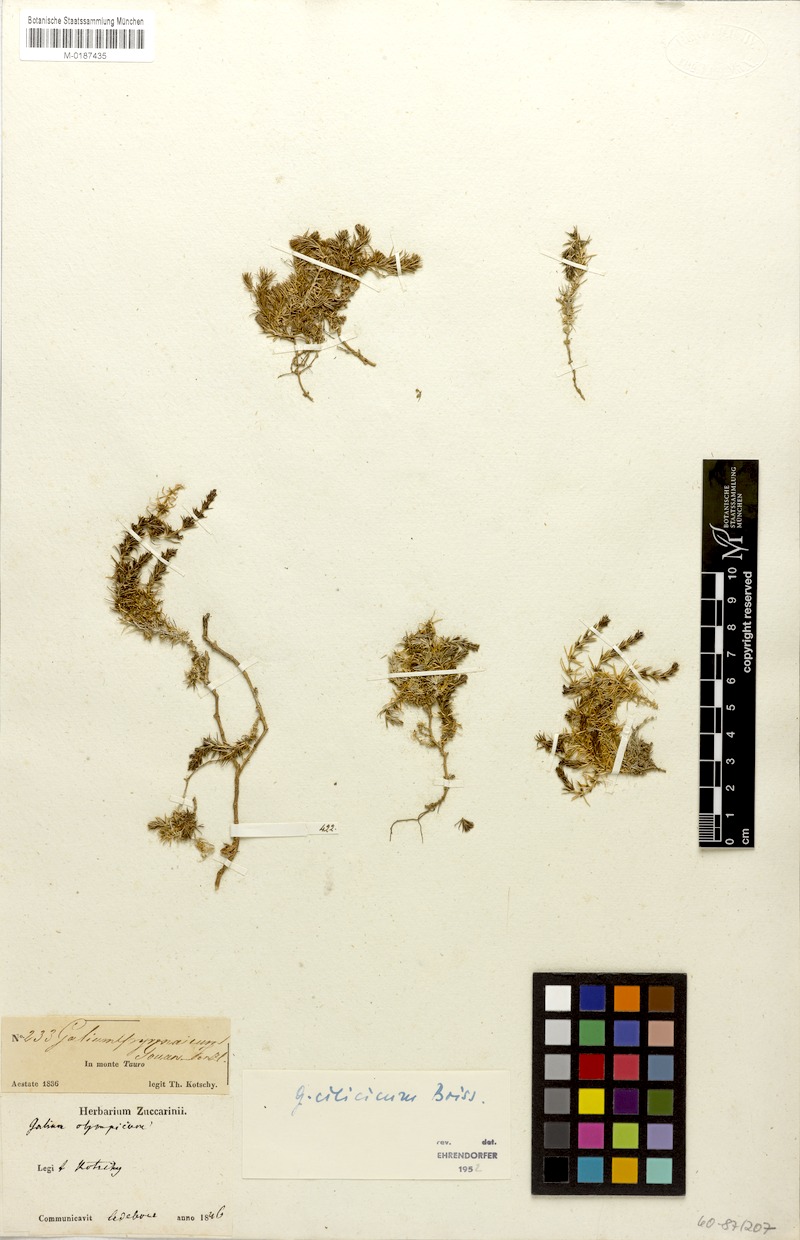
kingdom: Plantae
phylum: Tracheophyta
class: Magnoliopsida
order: Gentianales
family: Rubiaceae
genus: Galium
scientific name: Galium cilicicum
